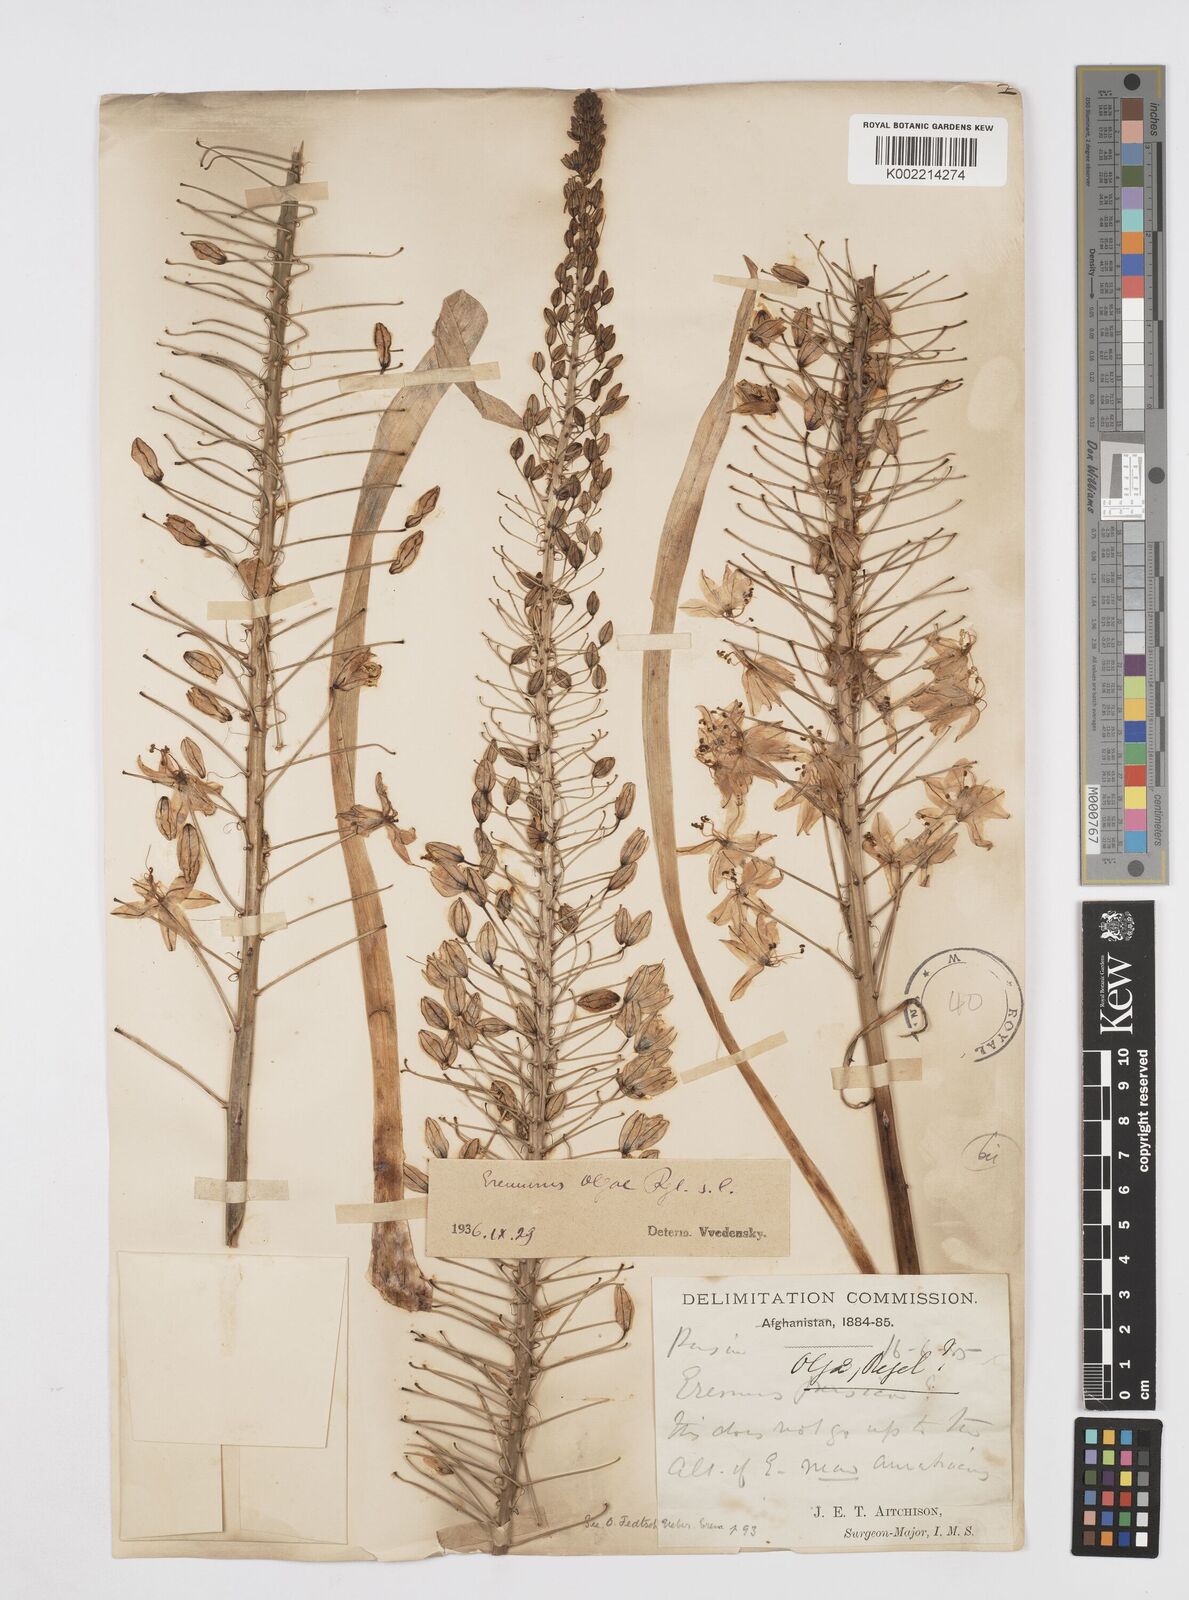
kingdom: Plantae
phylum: Tracheophyta
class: Liliopsida
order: Asparagales
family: Asphodelaceae
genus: Eremurus
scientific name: Eremurus olgae
